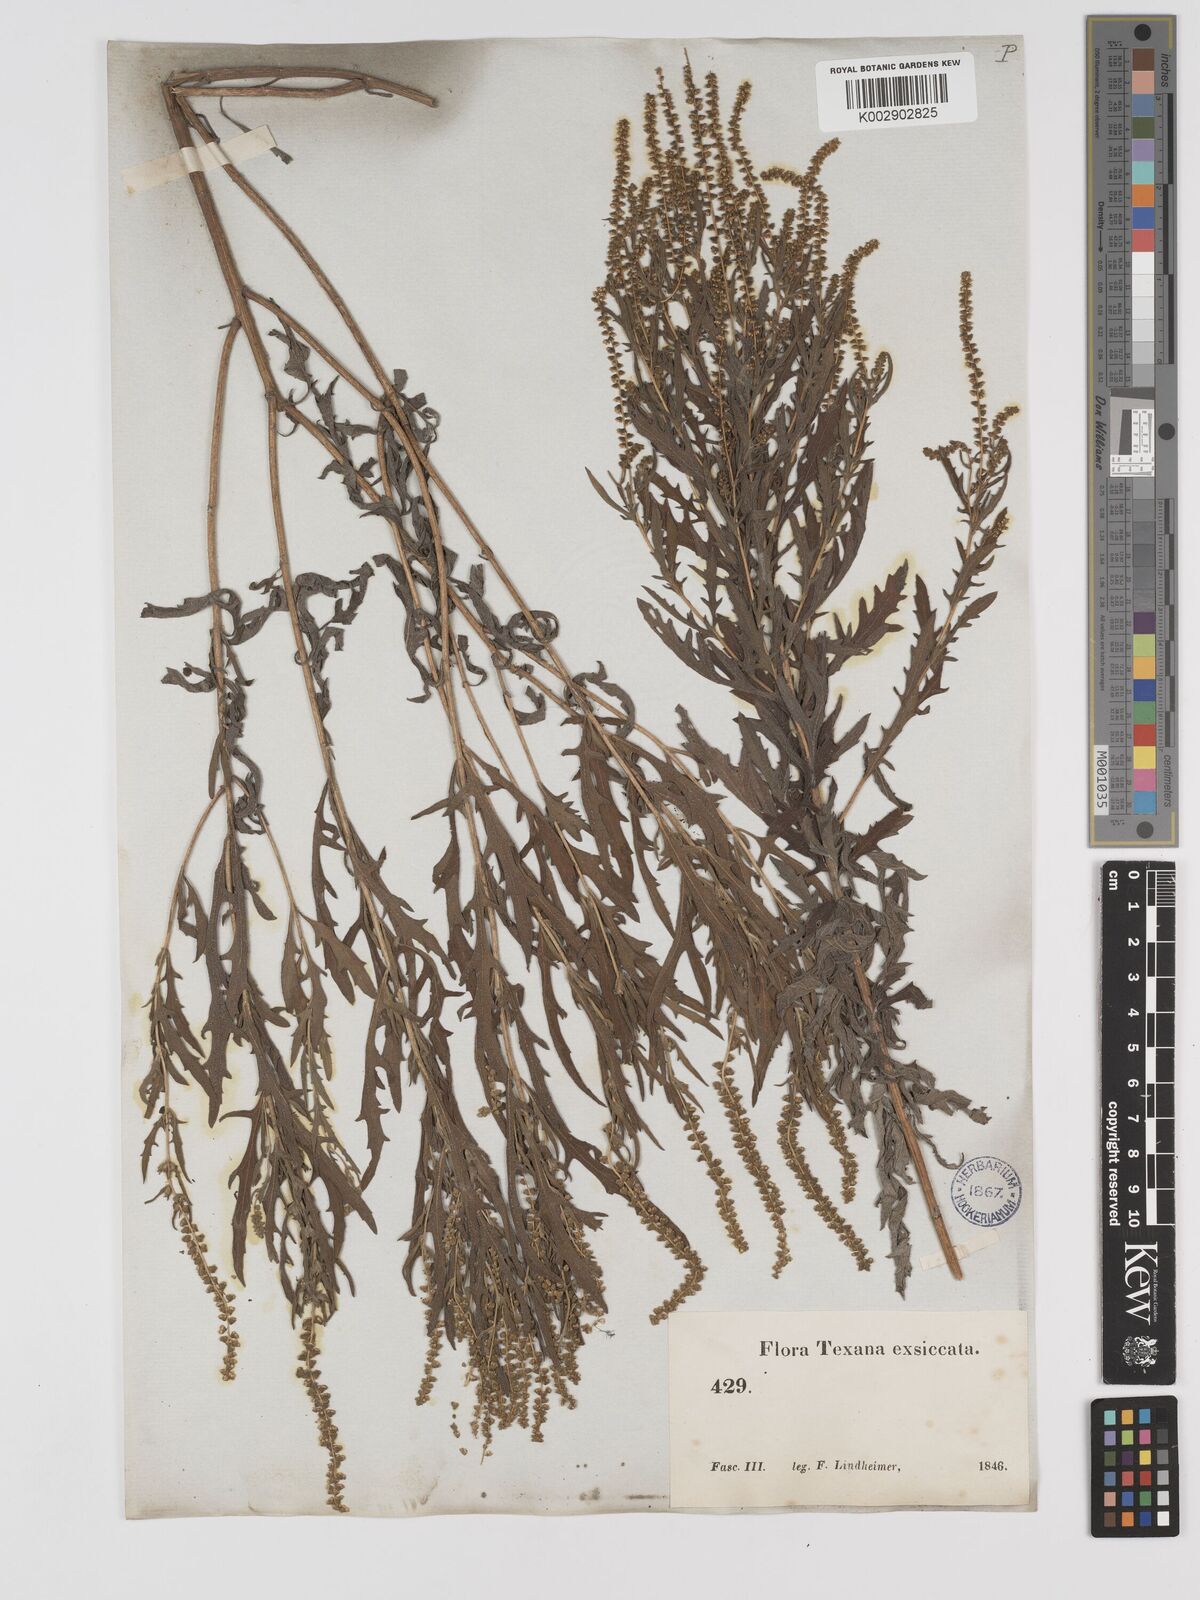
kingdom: Plantae
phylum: Tracheophyta
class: Magnoliopsida
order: Asterales
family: Asteraceae
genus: Ambrosia
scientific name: Ambrosia artemisiifolia
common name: Annual ragweed
